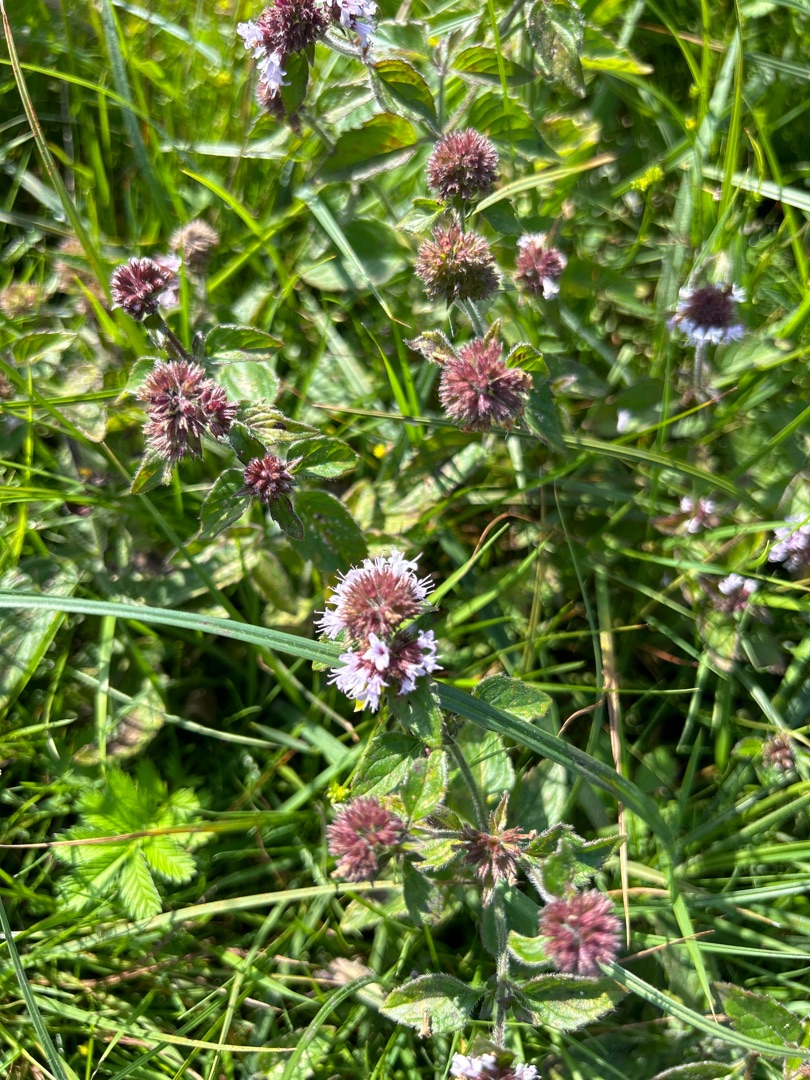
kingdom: Plantae
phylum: Tracheophyta
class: Magnoliopsida
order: Lamiales
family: Lamiaceae
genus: Mentha
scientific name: Mentha aquatica
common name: Vand-mynte
